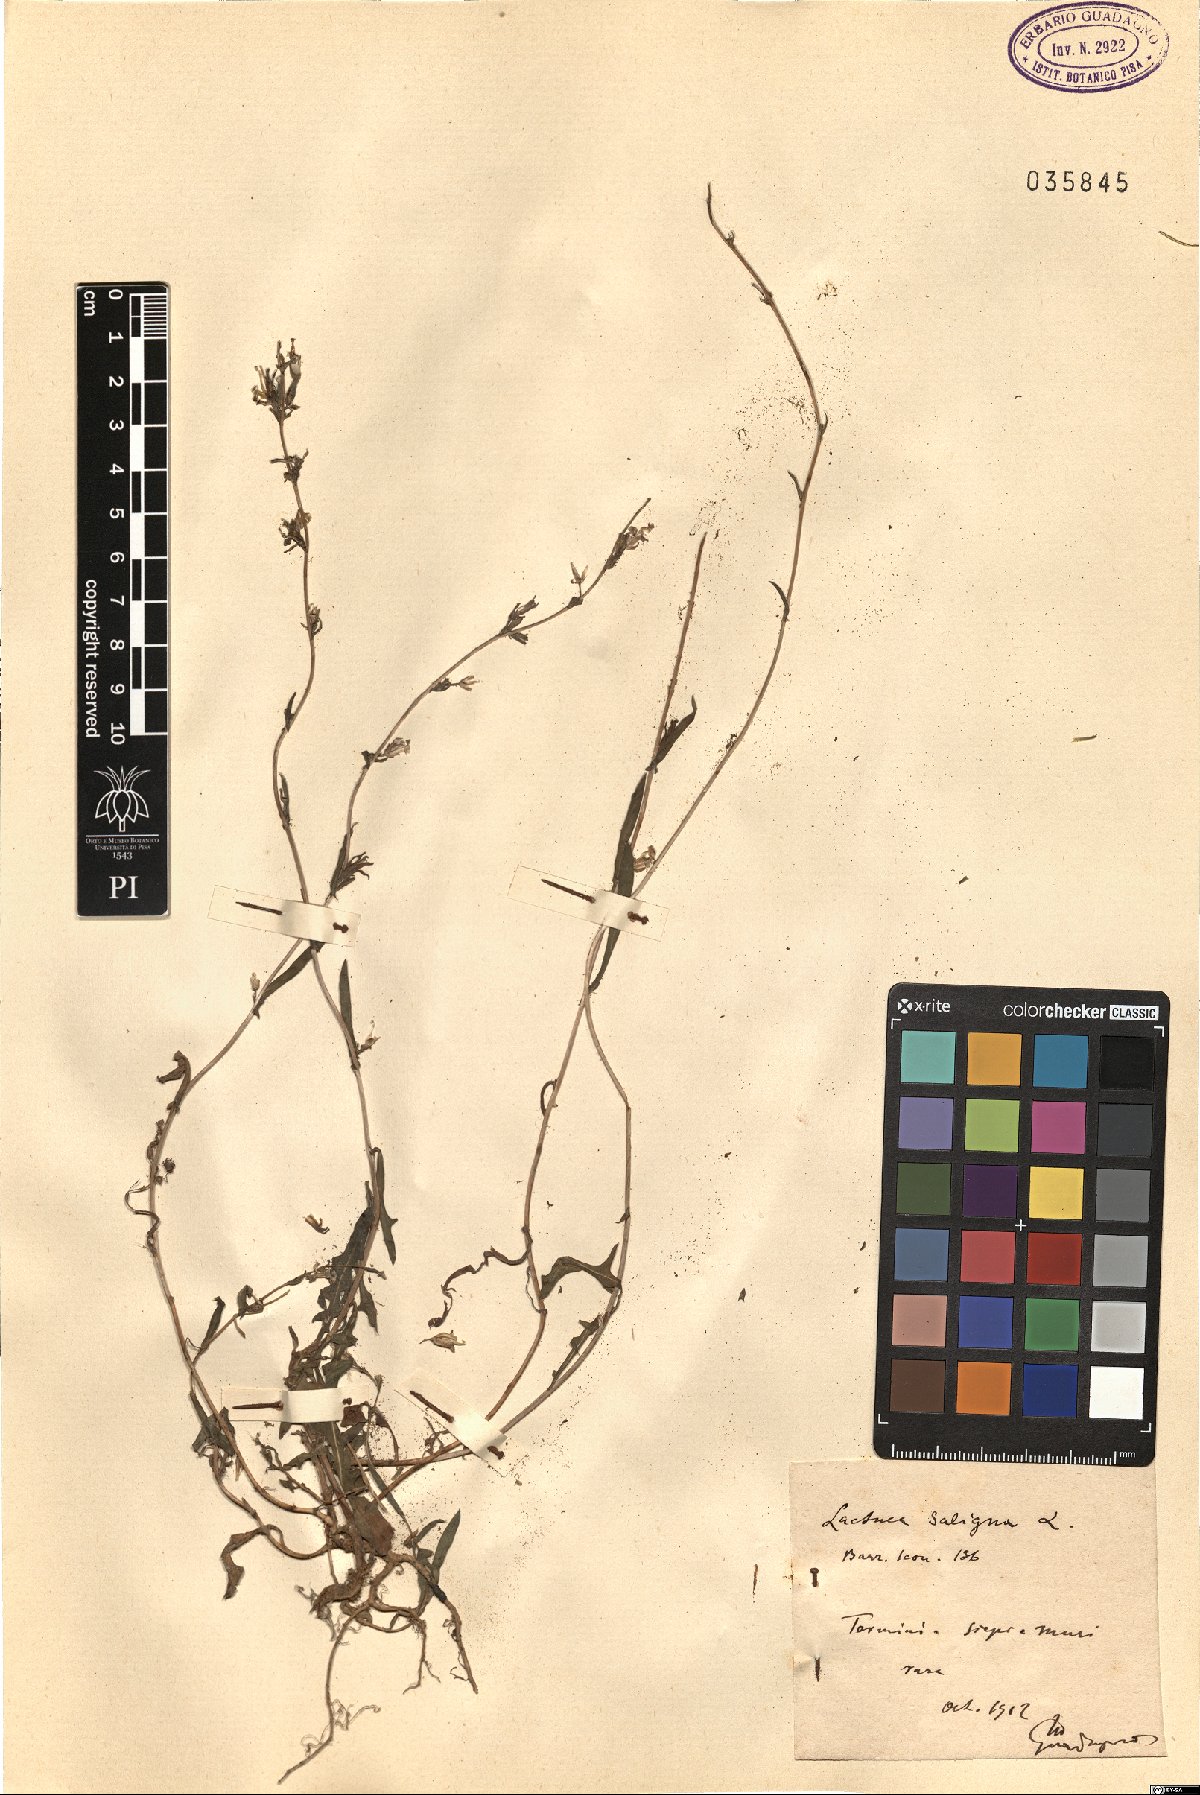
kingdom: Plantae
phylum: Tracheophyta
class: Magnoliopsida
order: Asterales
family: Asteraceae
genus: Lactuca
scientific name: Lactuca saligna
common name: Wild lettuce
